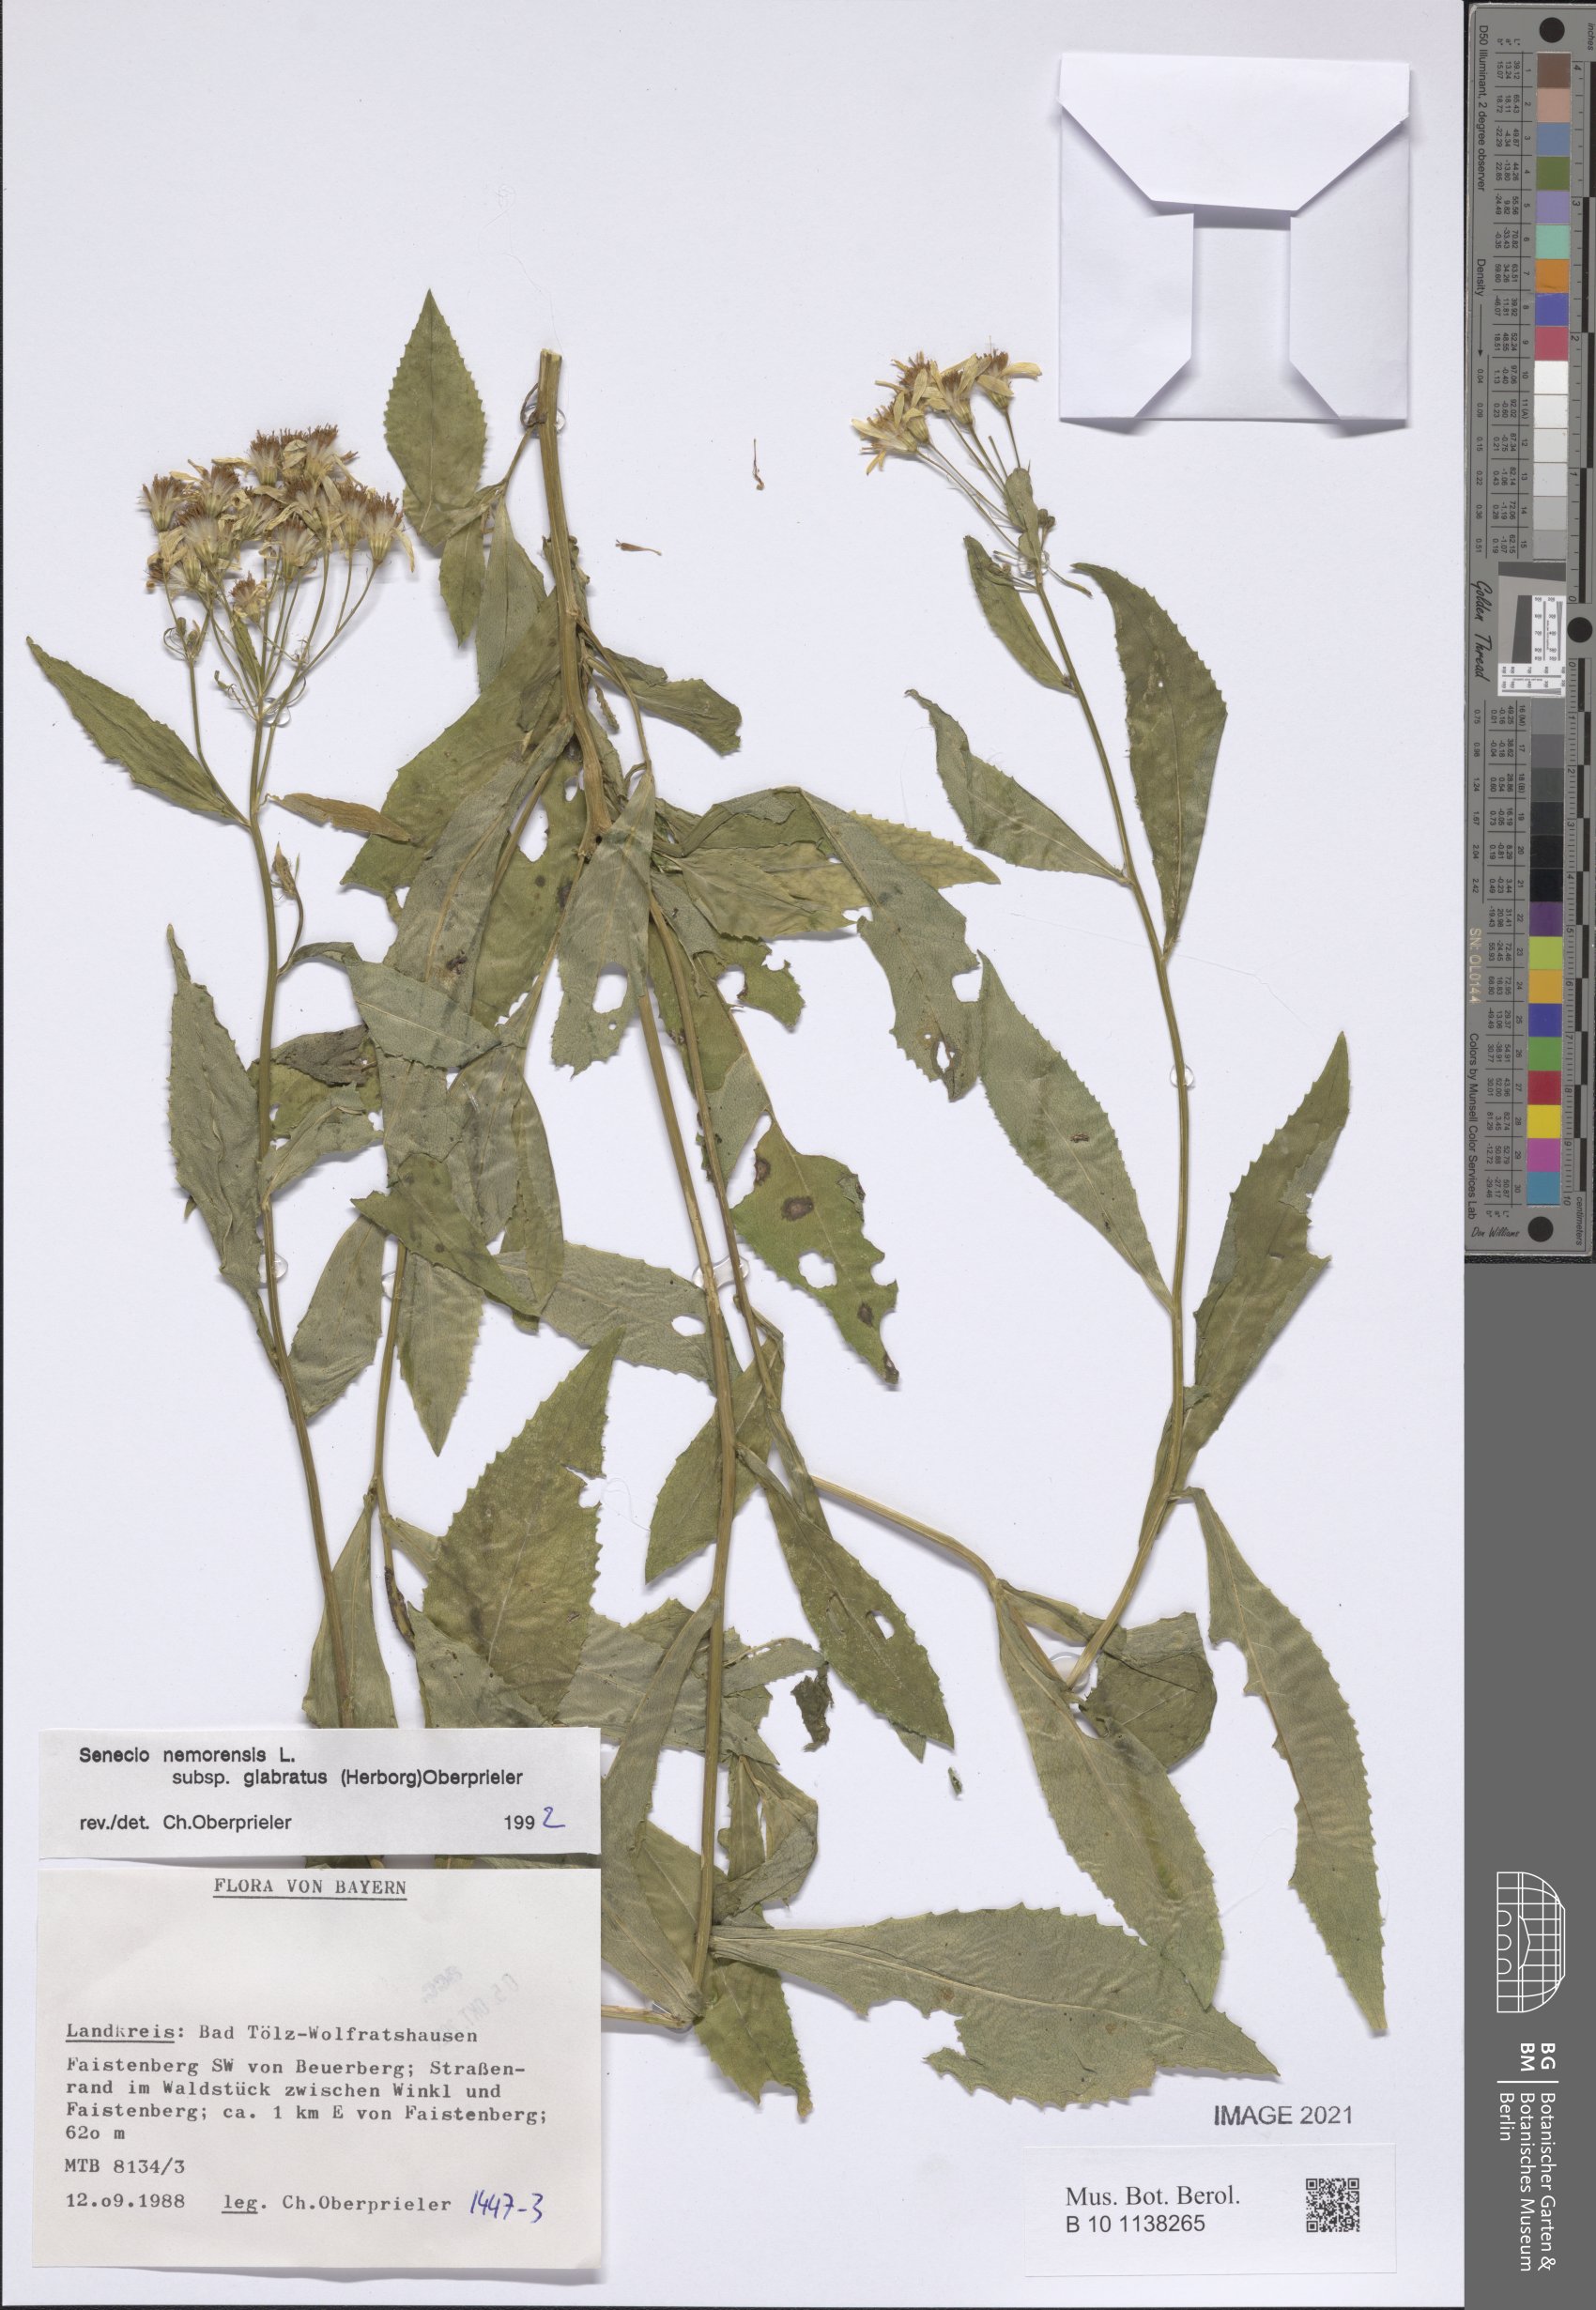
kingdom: Plantae
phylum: Tracheophyta
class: Magnoliopsida
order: Asterales
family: Asteraceae
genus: Senecio
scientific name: Senecio germanicus
